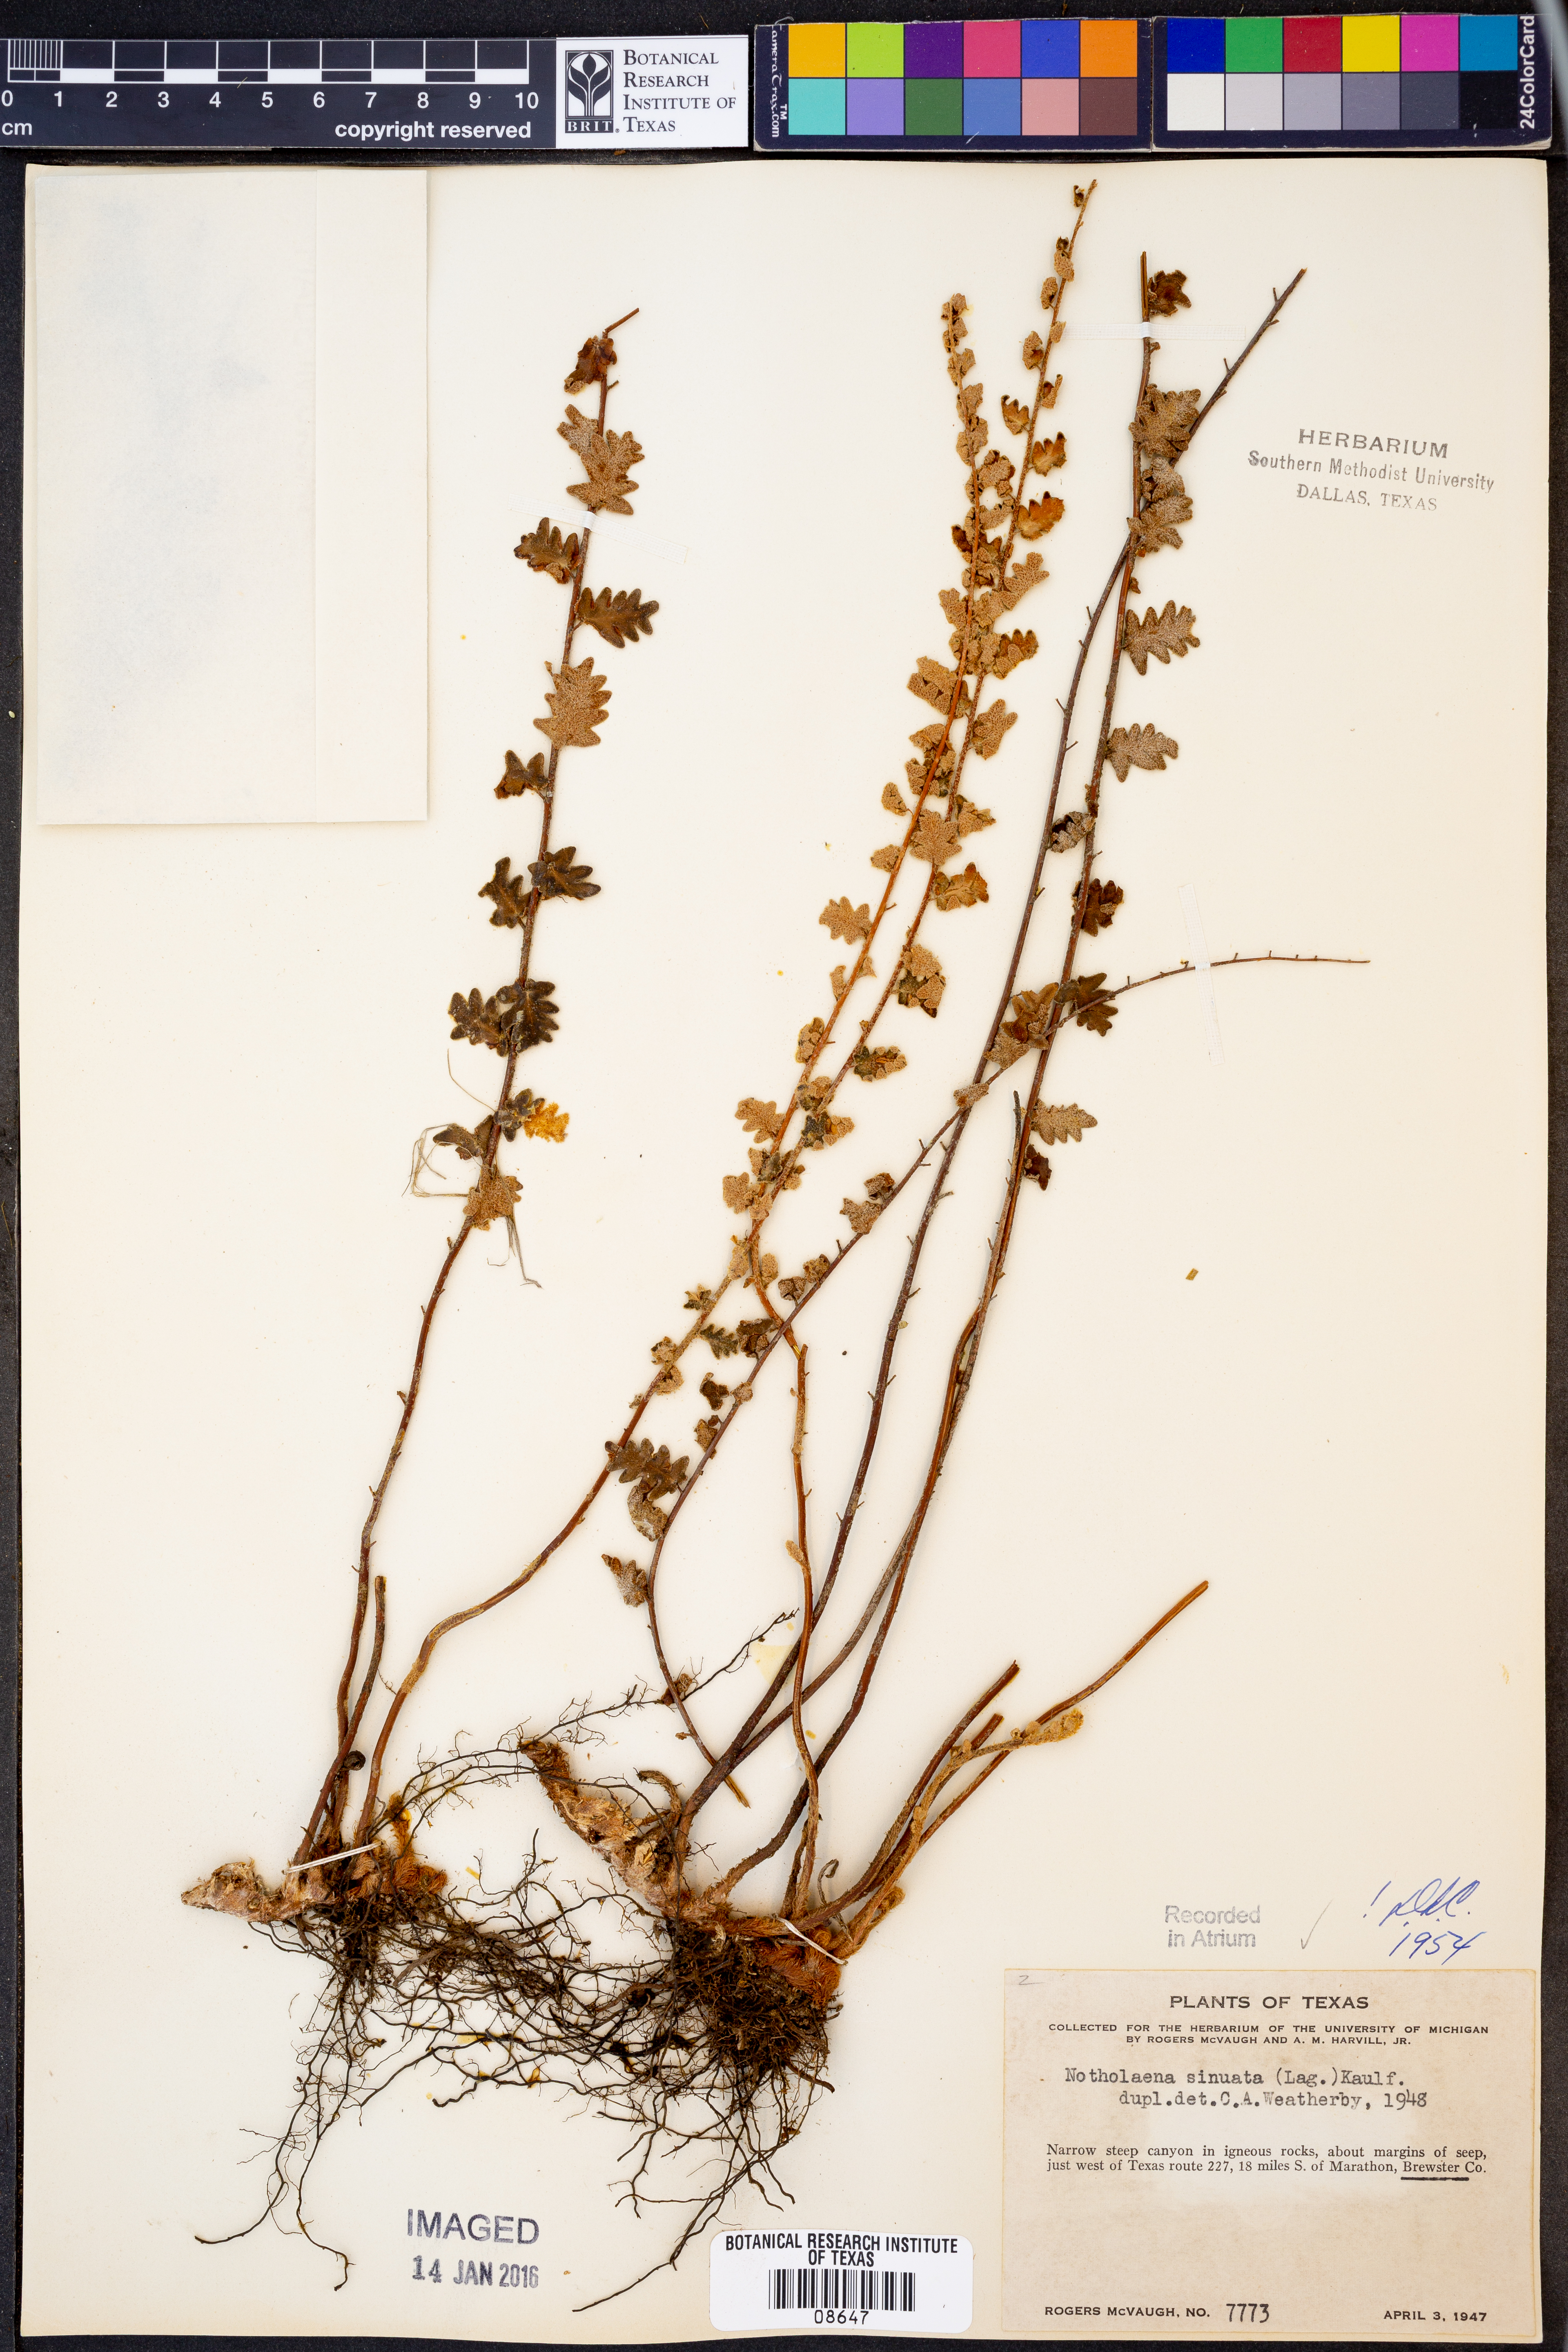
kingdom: Plantae
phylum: Tracheophyta
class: Polypodiopsida
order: Polypodiales
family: Pteridaceae
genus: Astrolepis
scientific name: Astrolepis sinuata
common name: Wavy scaly cloakfern
